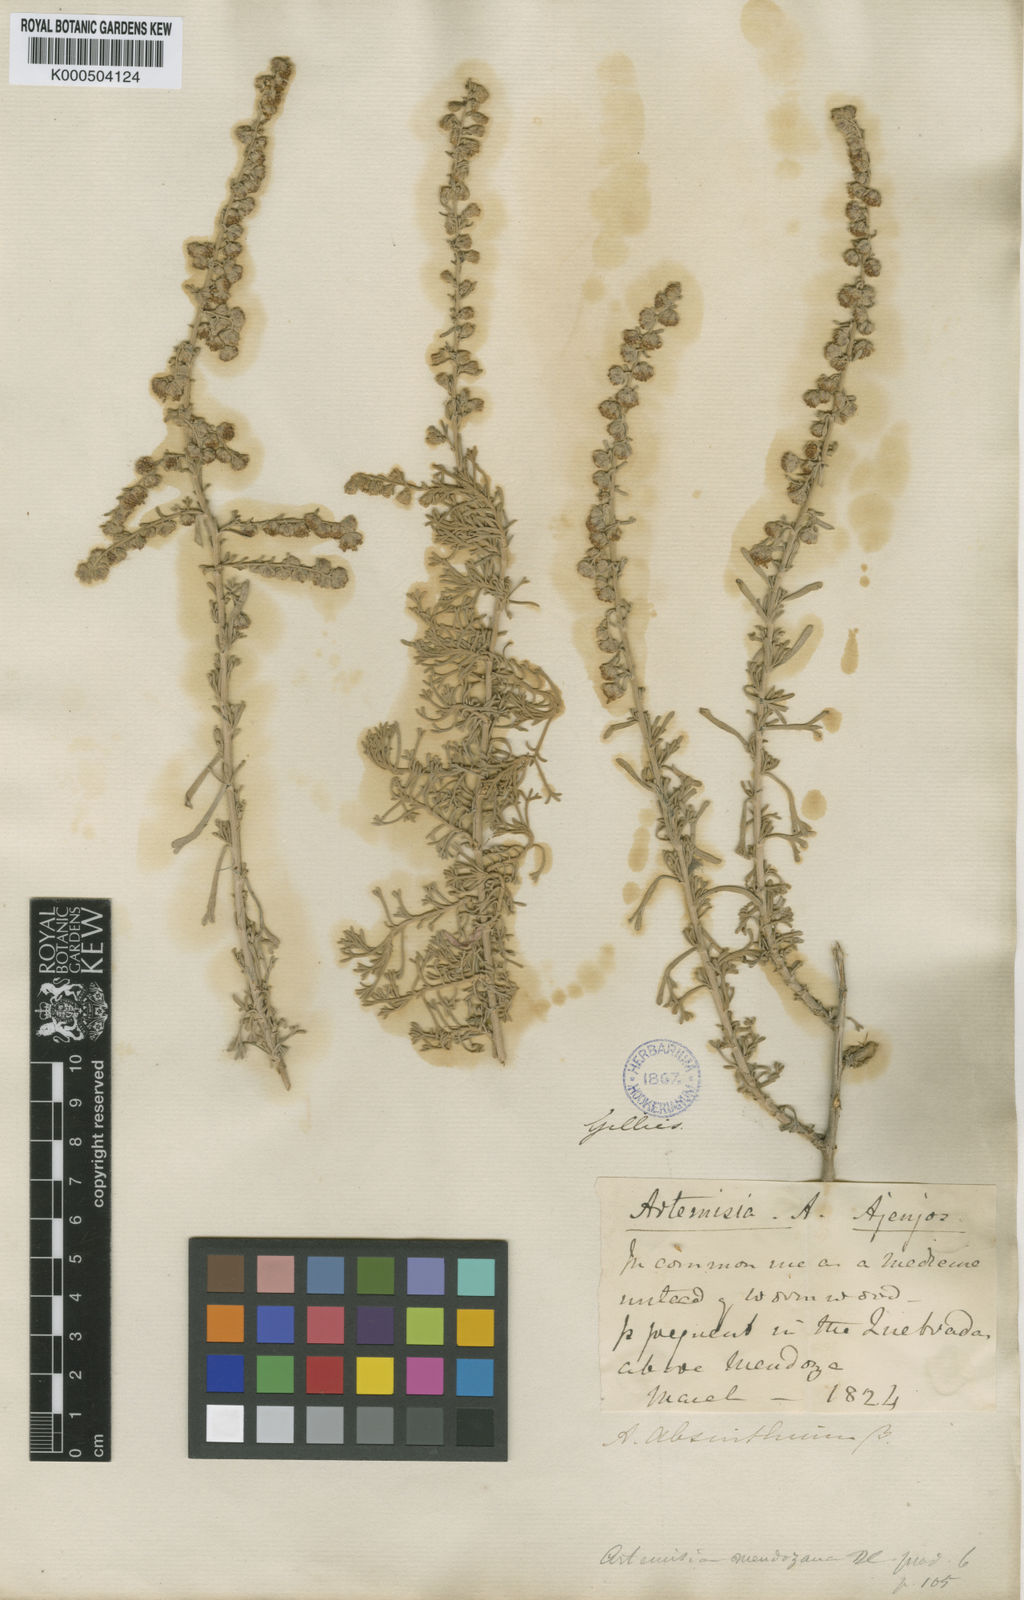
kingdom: Plantae
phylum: Tracheophyta
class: Magnoliopsida
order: Asterales
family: Asteraceae
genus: Artemisia
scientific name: Artemisia mendozana
